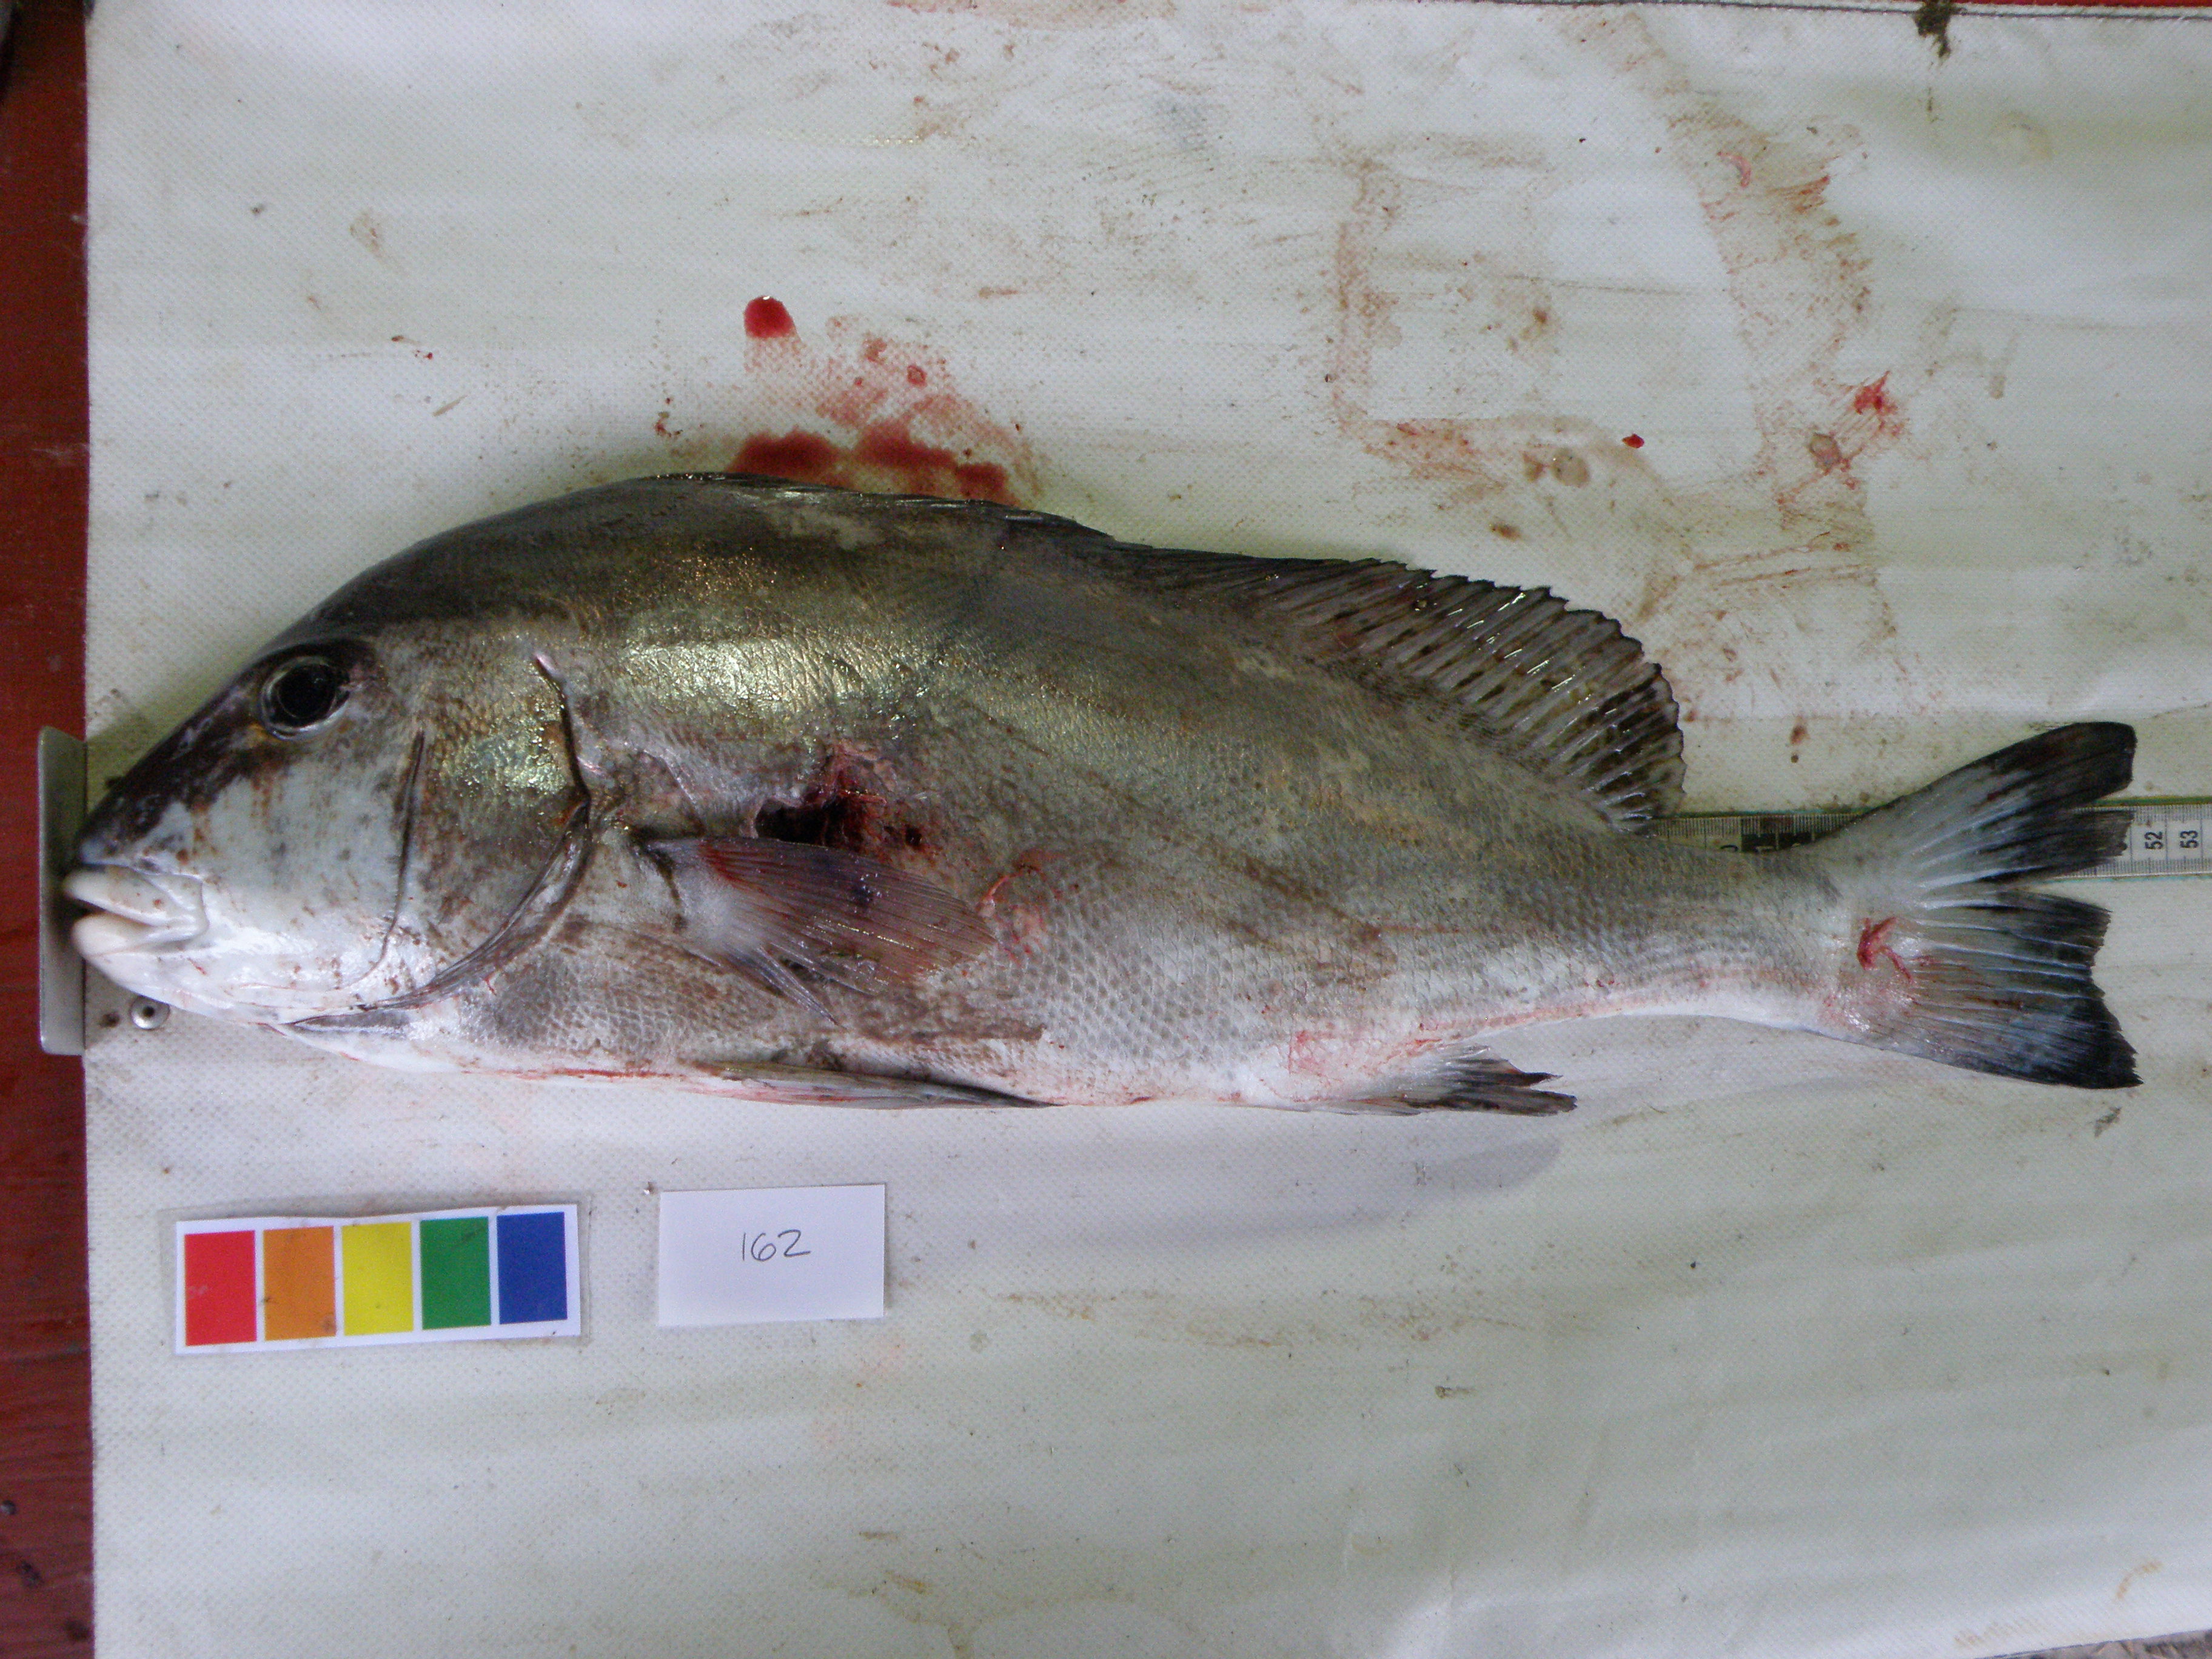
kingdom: Animalia
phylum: Chordata
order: Perciformes
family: Haemulidae
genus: Diagramma
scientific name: Diagramma pictum
